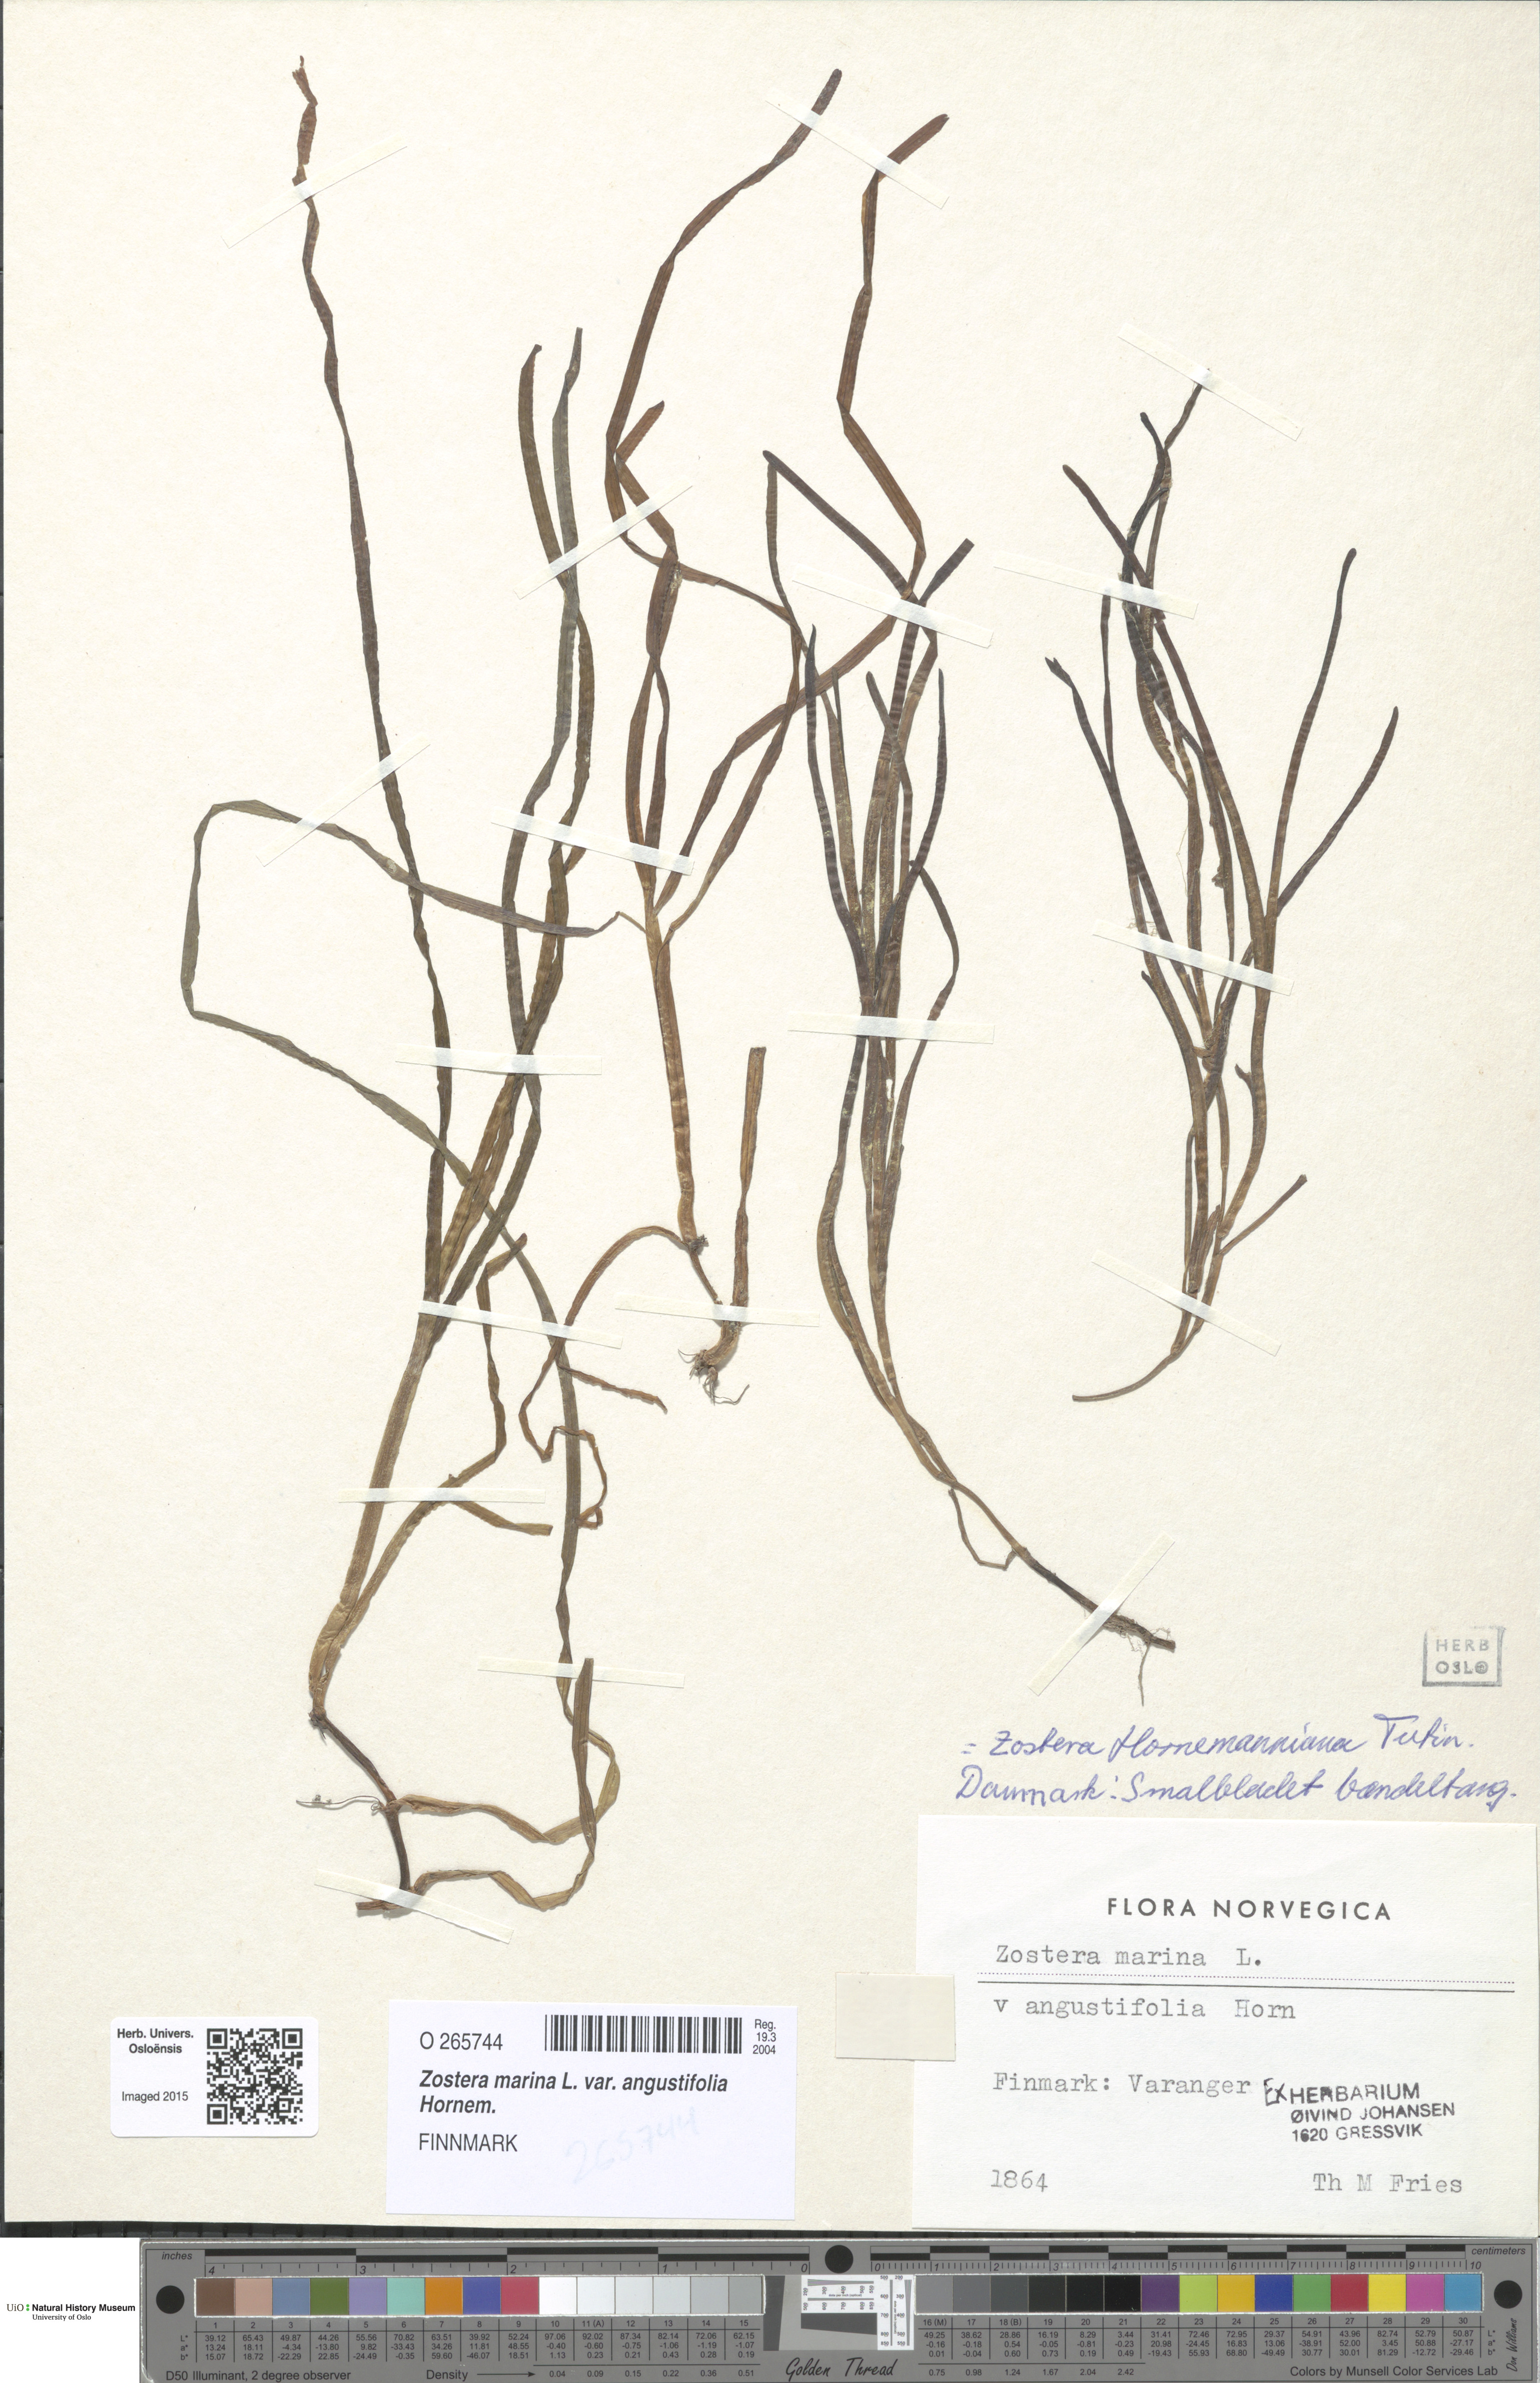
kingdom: Plantae
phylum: Tracheophyta
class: Liliopsida
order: Alismatales
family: Zosteraceae
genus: Zostera
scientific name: Zostera noltii
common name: Dwarf eelgrass
